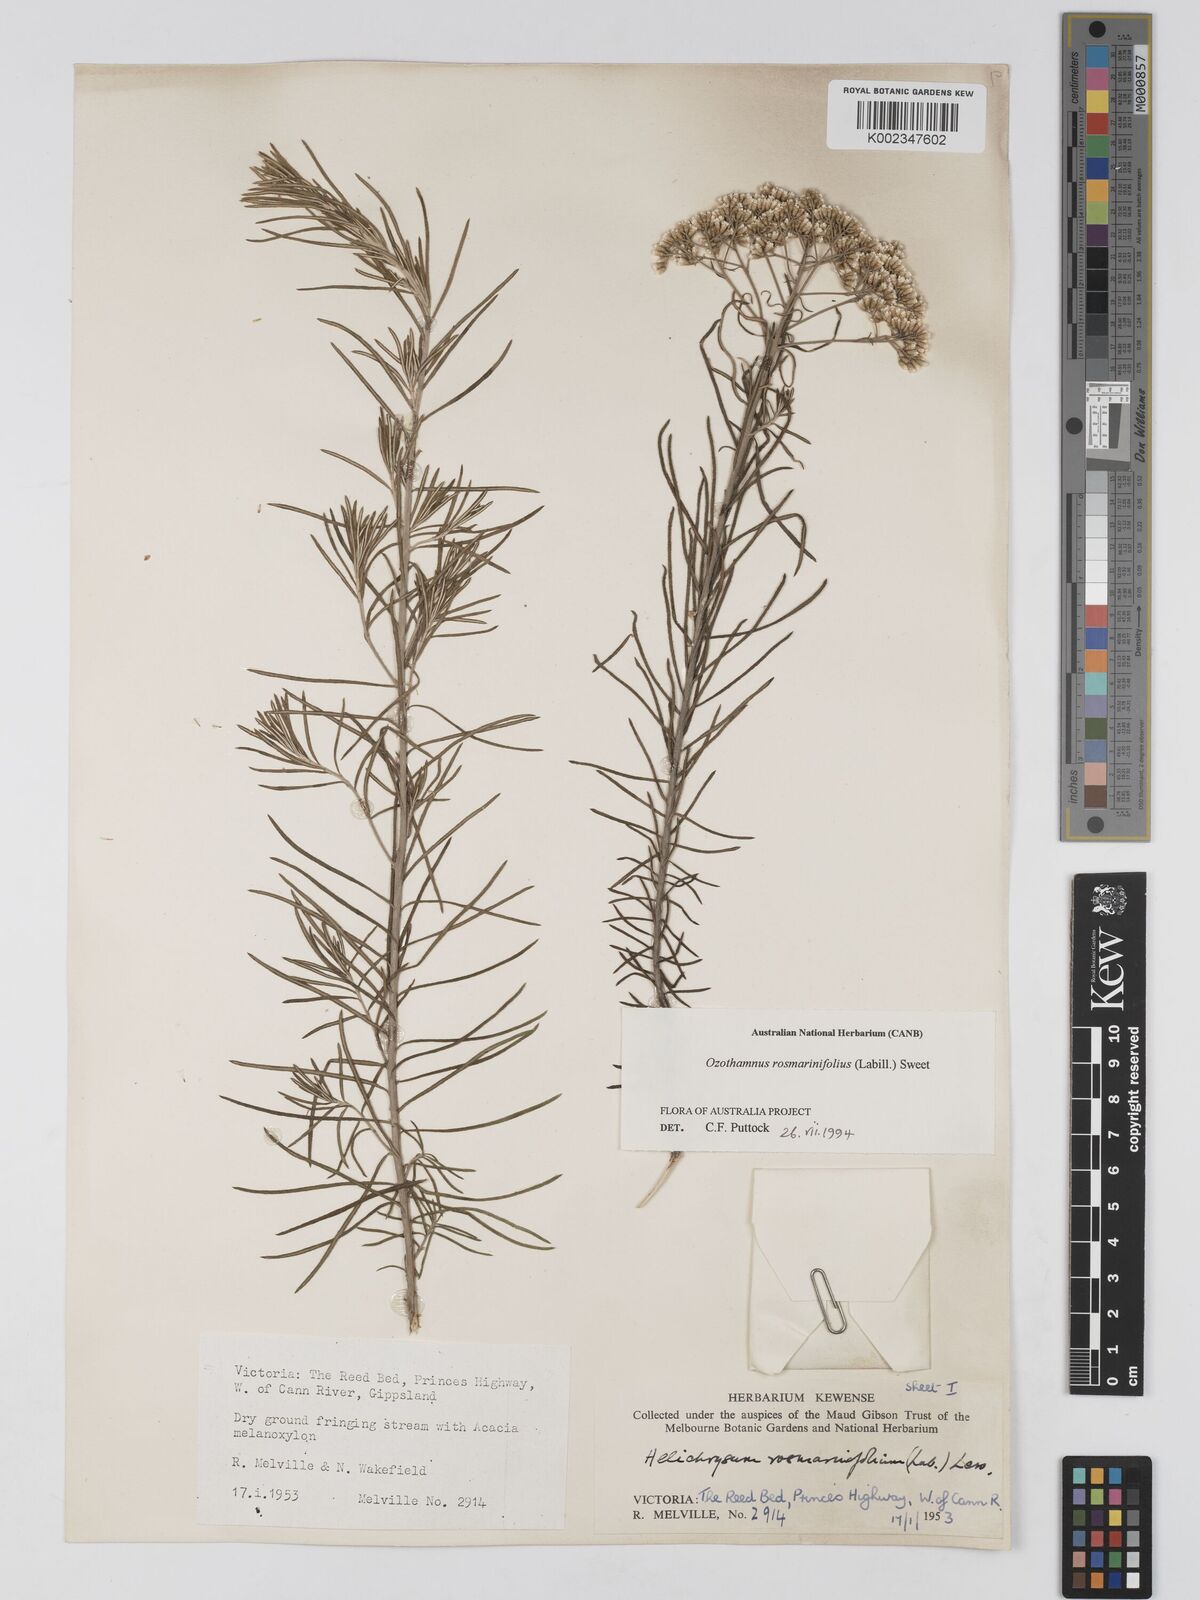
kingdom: Plantae
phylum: Tracheophyta
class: Magnoliopsida
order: Asterales
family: Asteraceae
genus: Ozothamnus
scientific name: Ozothamnus rosmarinifolius
